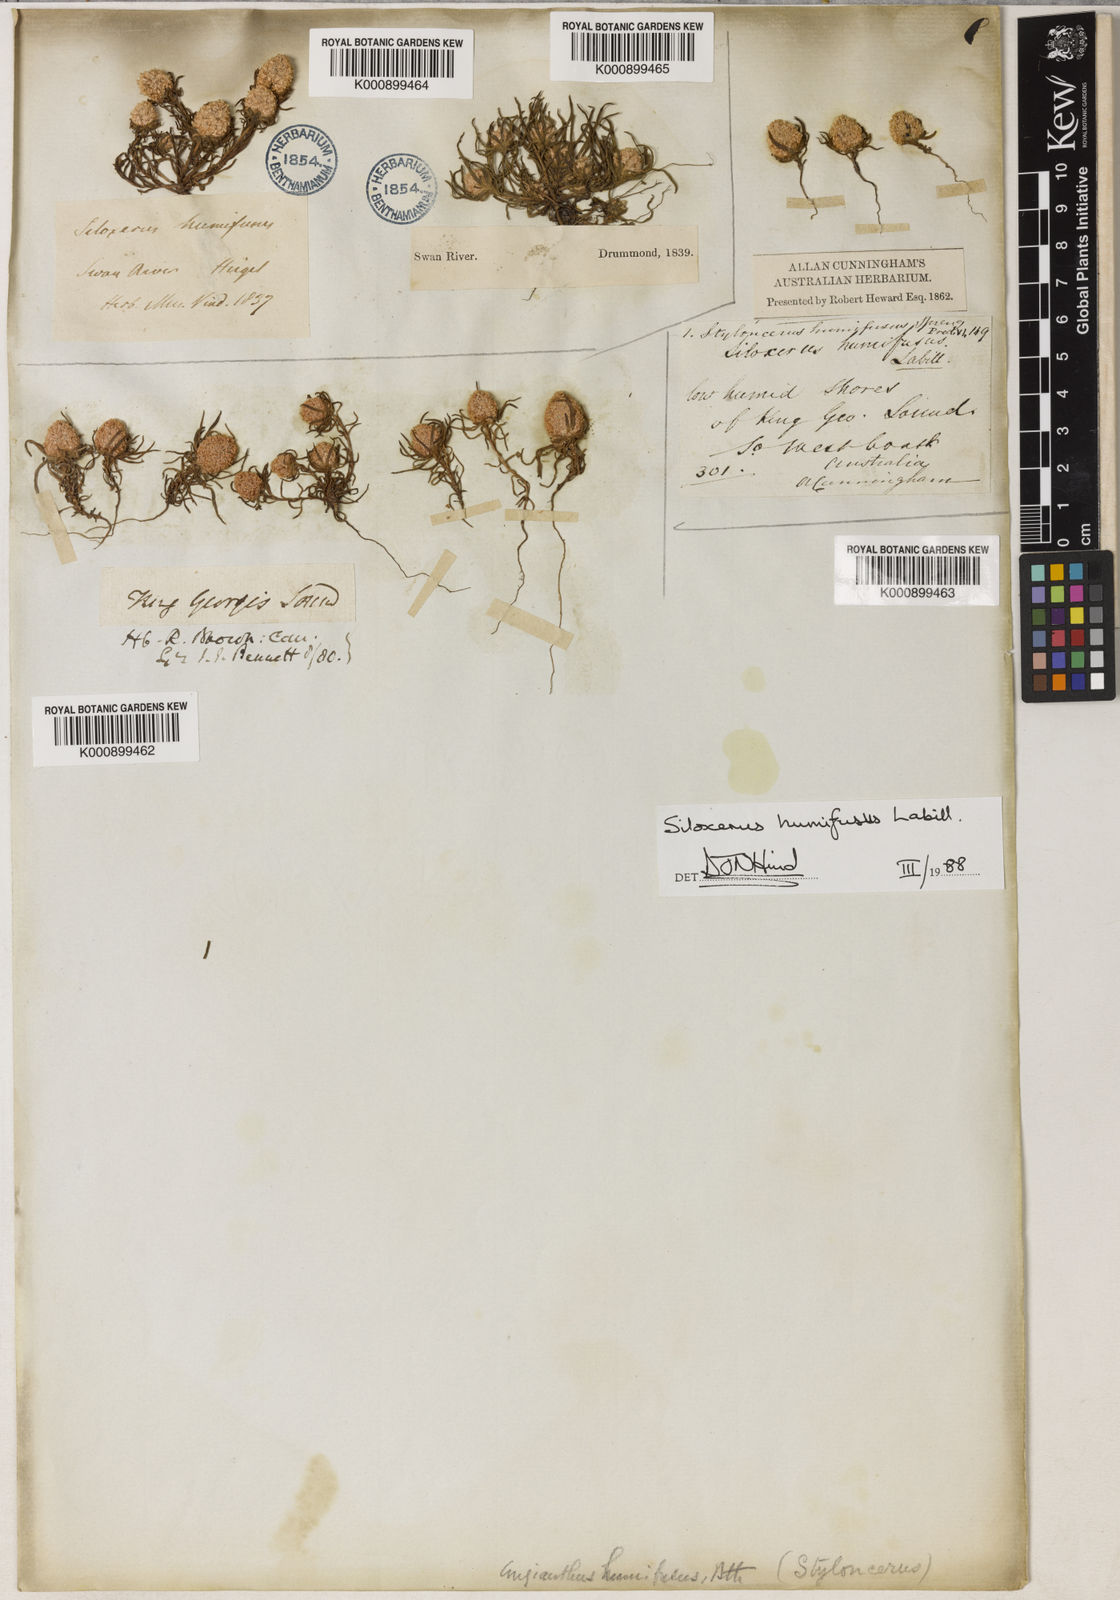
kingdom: Plantae
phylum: Tracheophyta
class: Magnoliopsida
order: Asterales
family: Asteraceae
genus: Siloxerus
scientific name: Siloxerus filifolius
